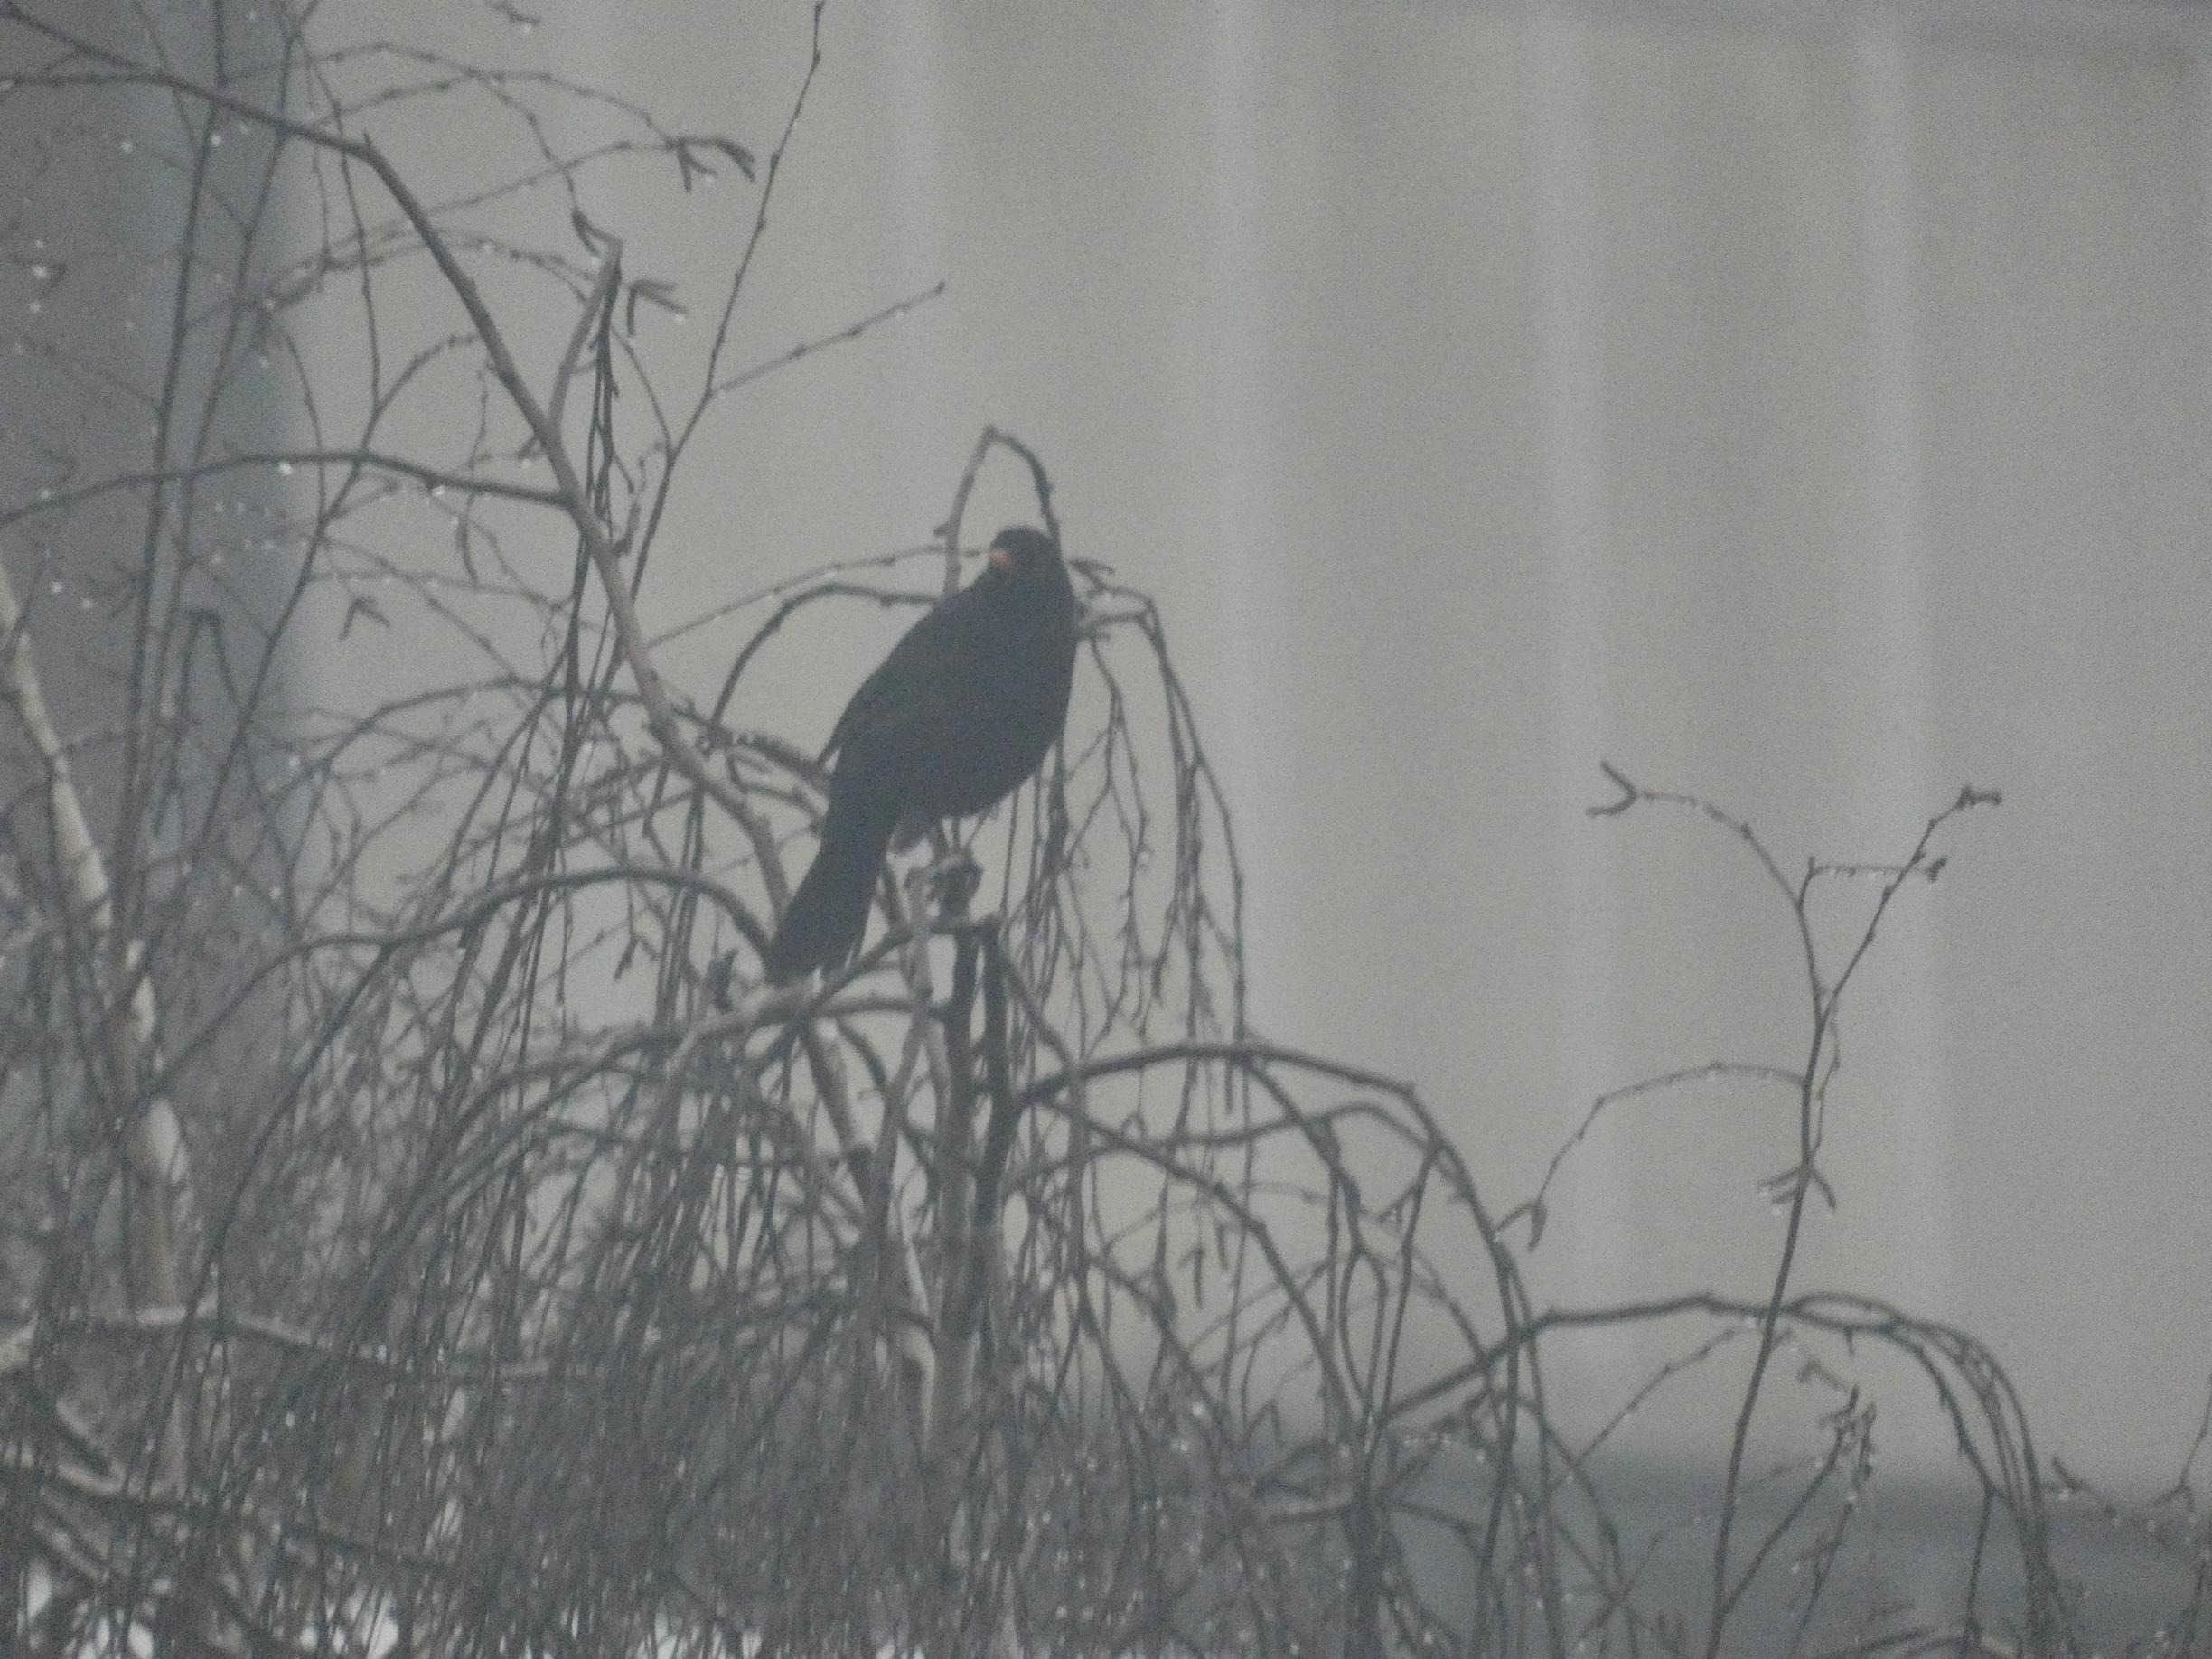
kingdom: Animalia
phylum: Chordata
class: Aves
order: Passeriformes
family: Turdidae
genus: Turdus
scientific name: Turdus merula
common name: Solsort
